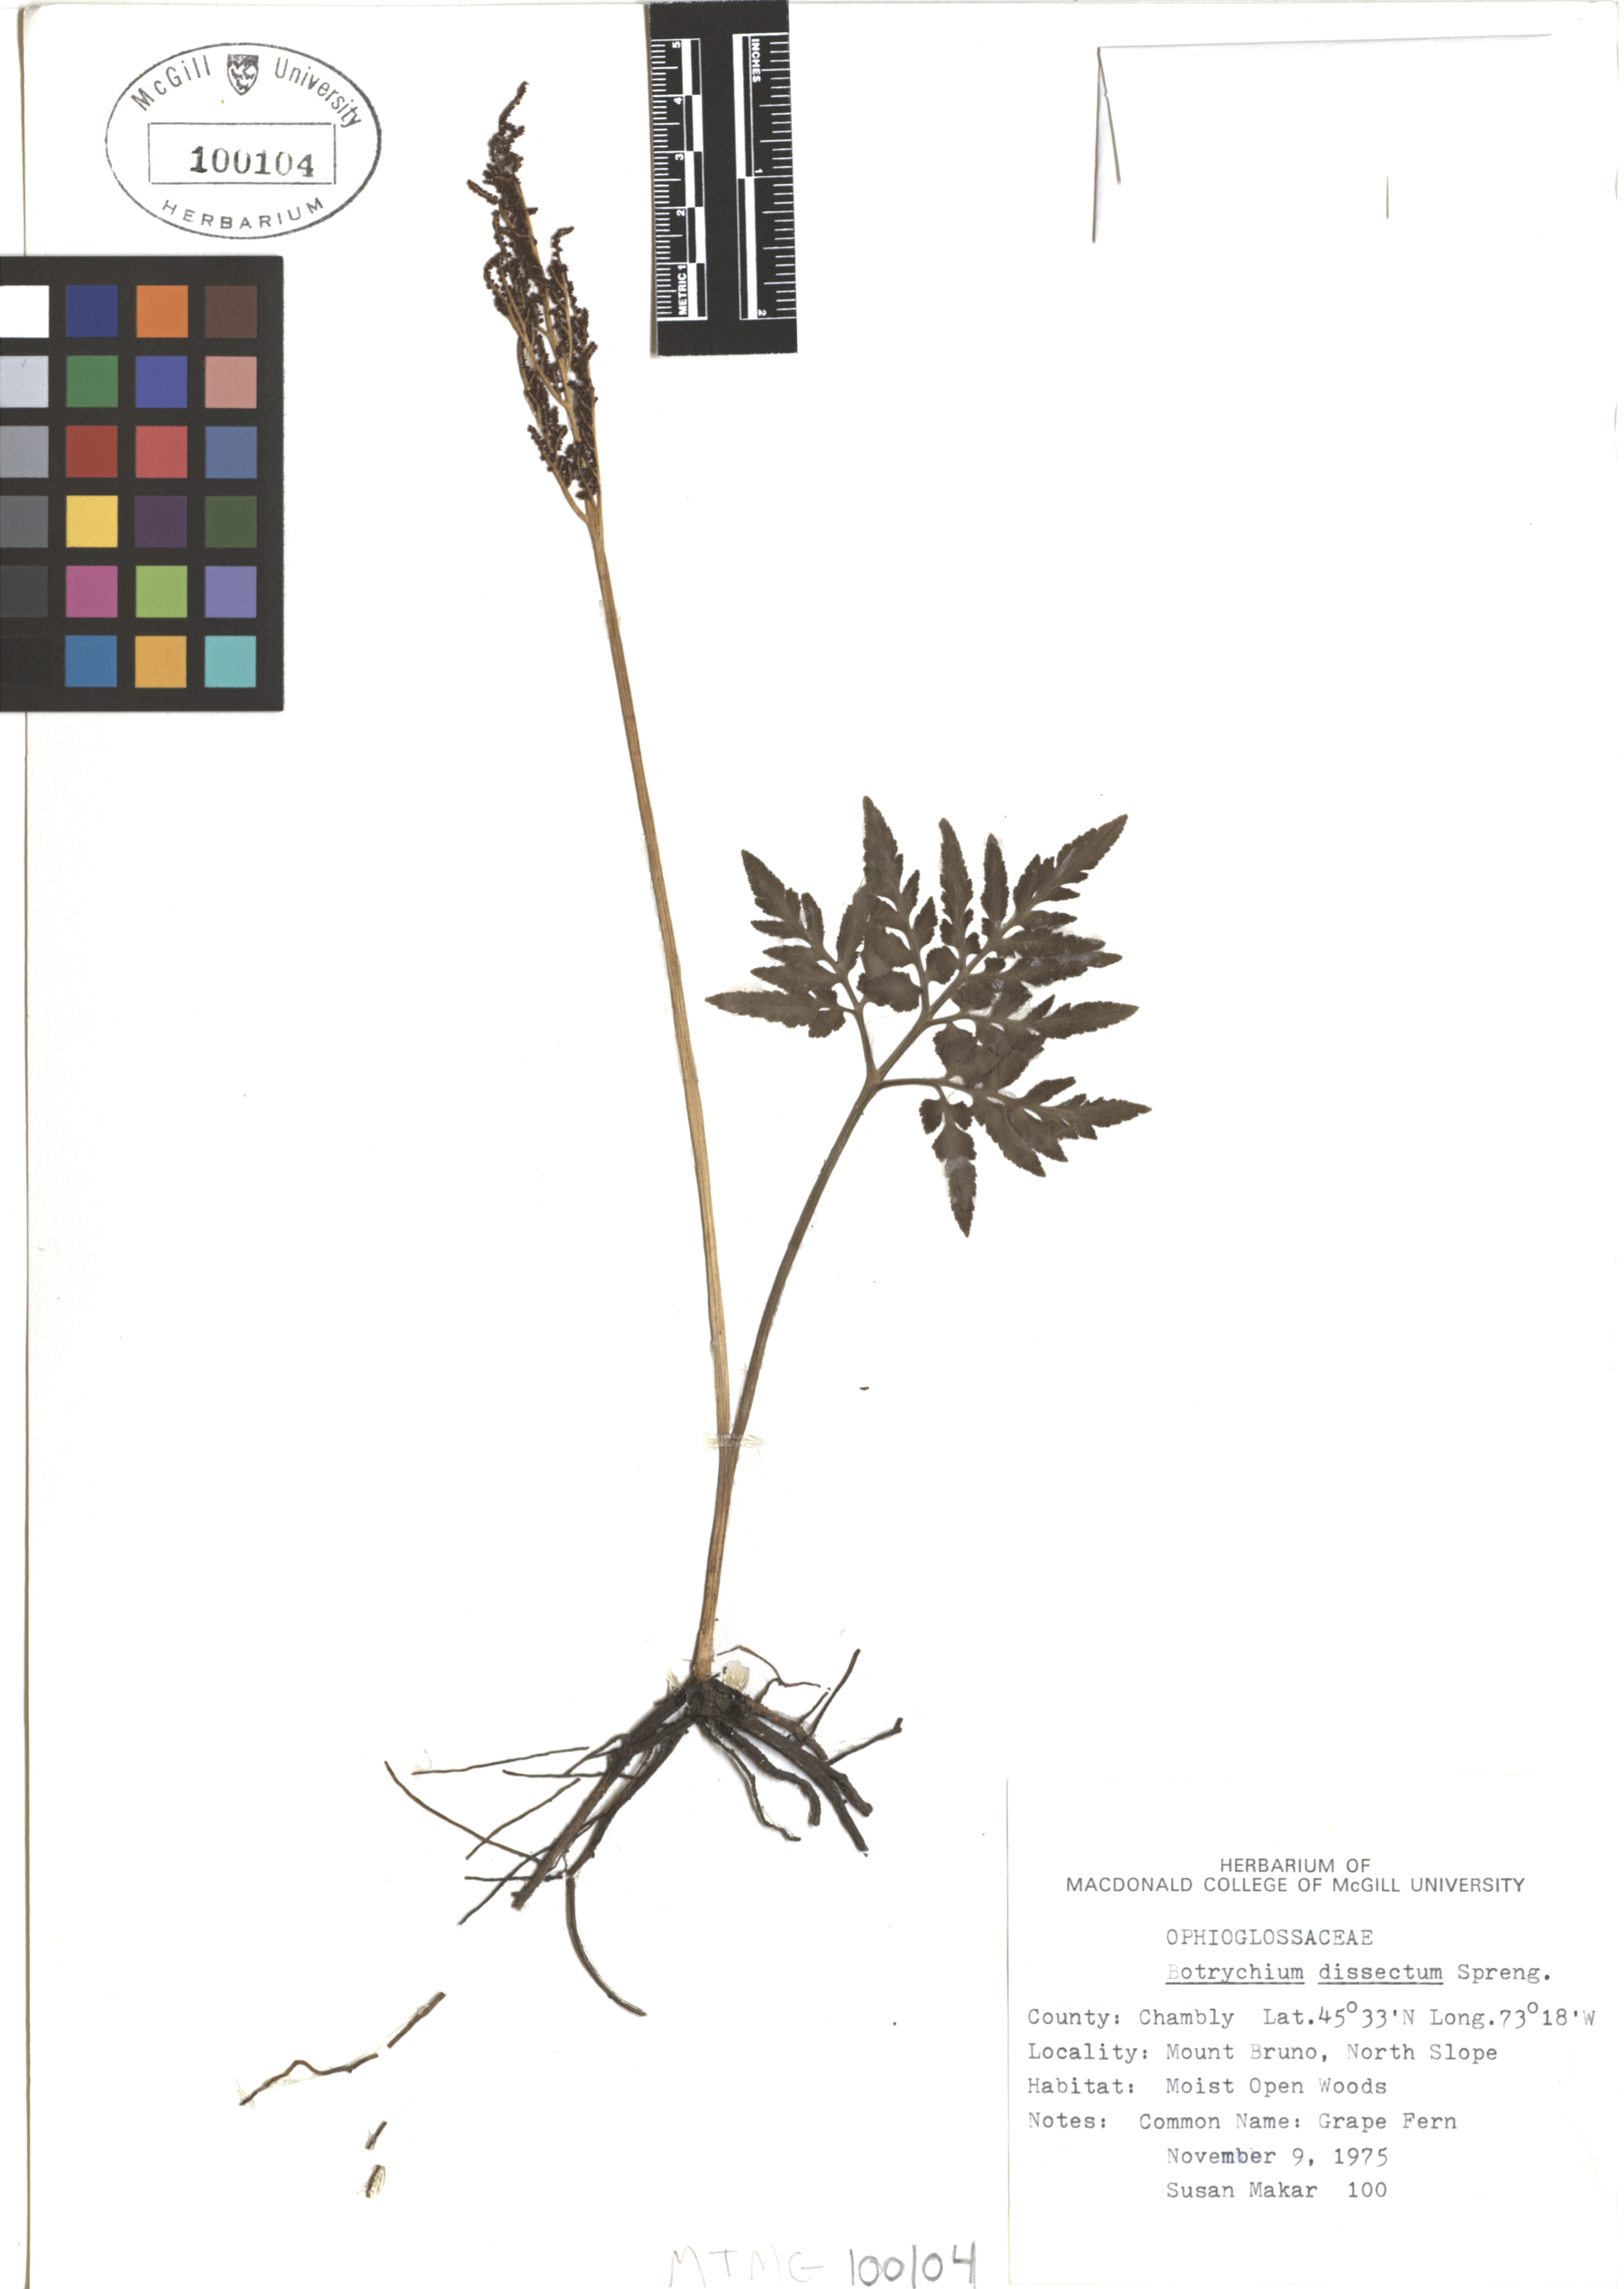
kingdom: Plantae
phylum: Tracheophyta
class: Polypodiopsida
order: Ophioglossales
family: Ophioglossaceae
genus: Sceptridium
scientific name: Sceptridium dissectum
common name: Cut-leaved grapefern
